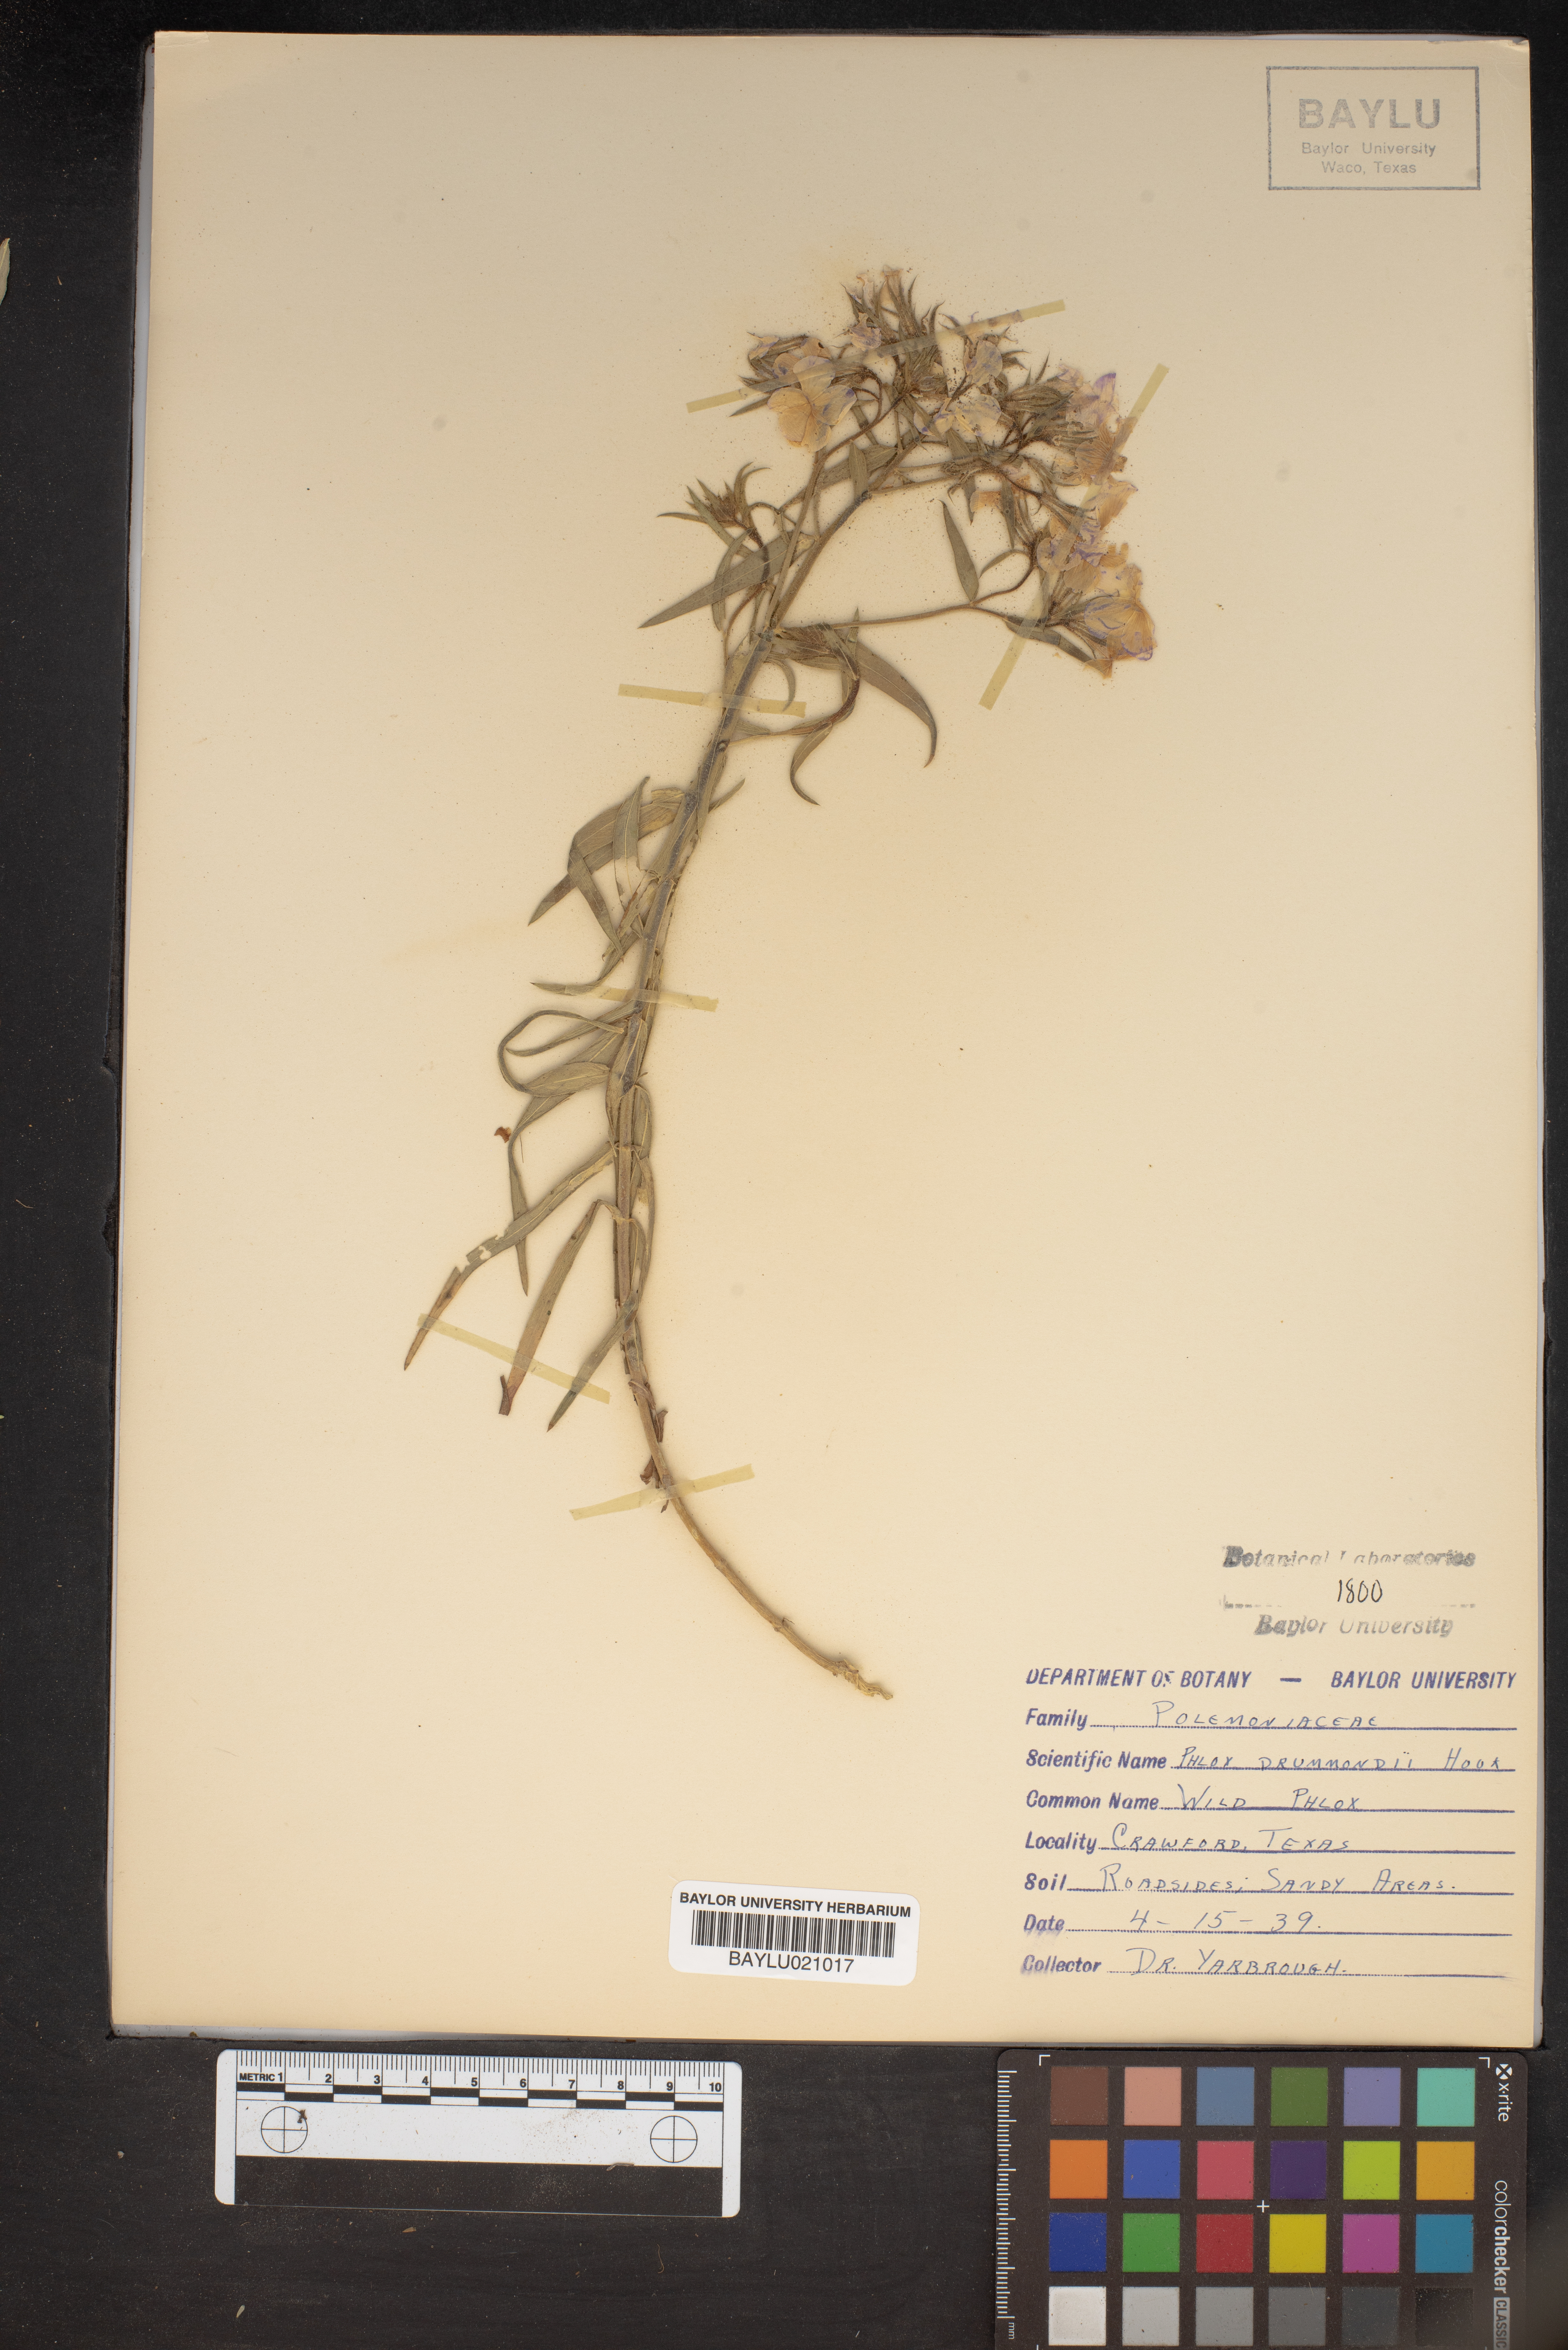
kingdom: Plantae
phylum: Tracheophyta
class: Magnoliopsida
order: Ericales
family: Polemoniaceae
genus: Phlox
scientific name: Phlox drummondii
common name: Drummond's phlox
